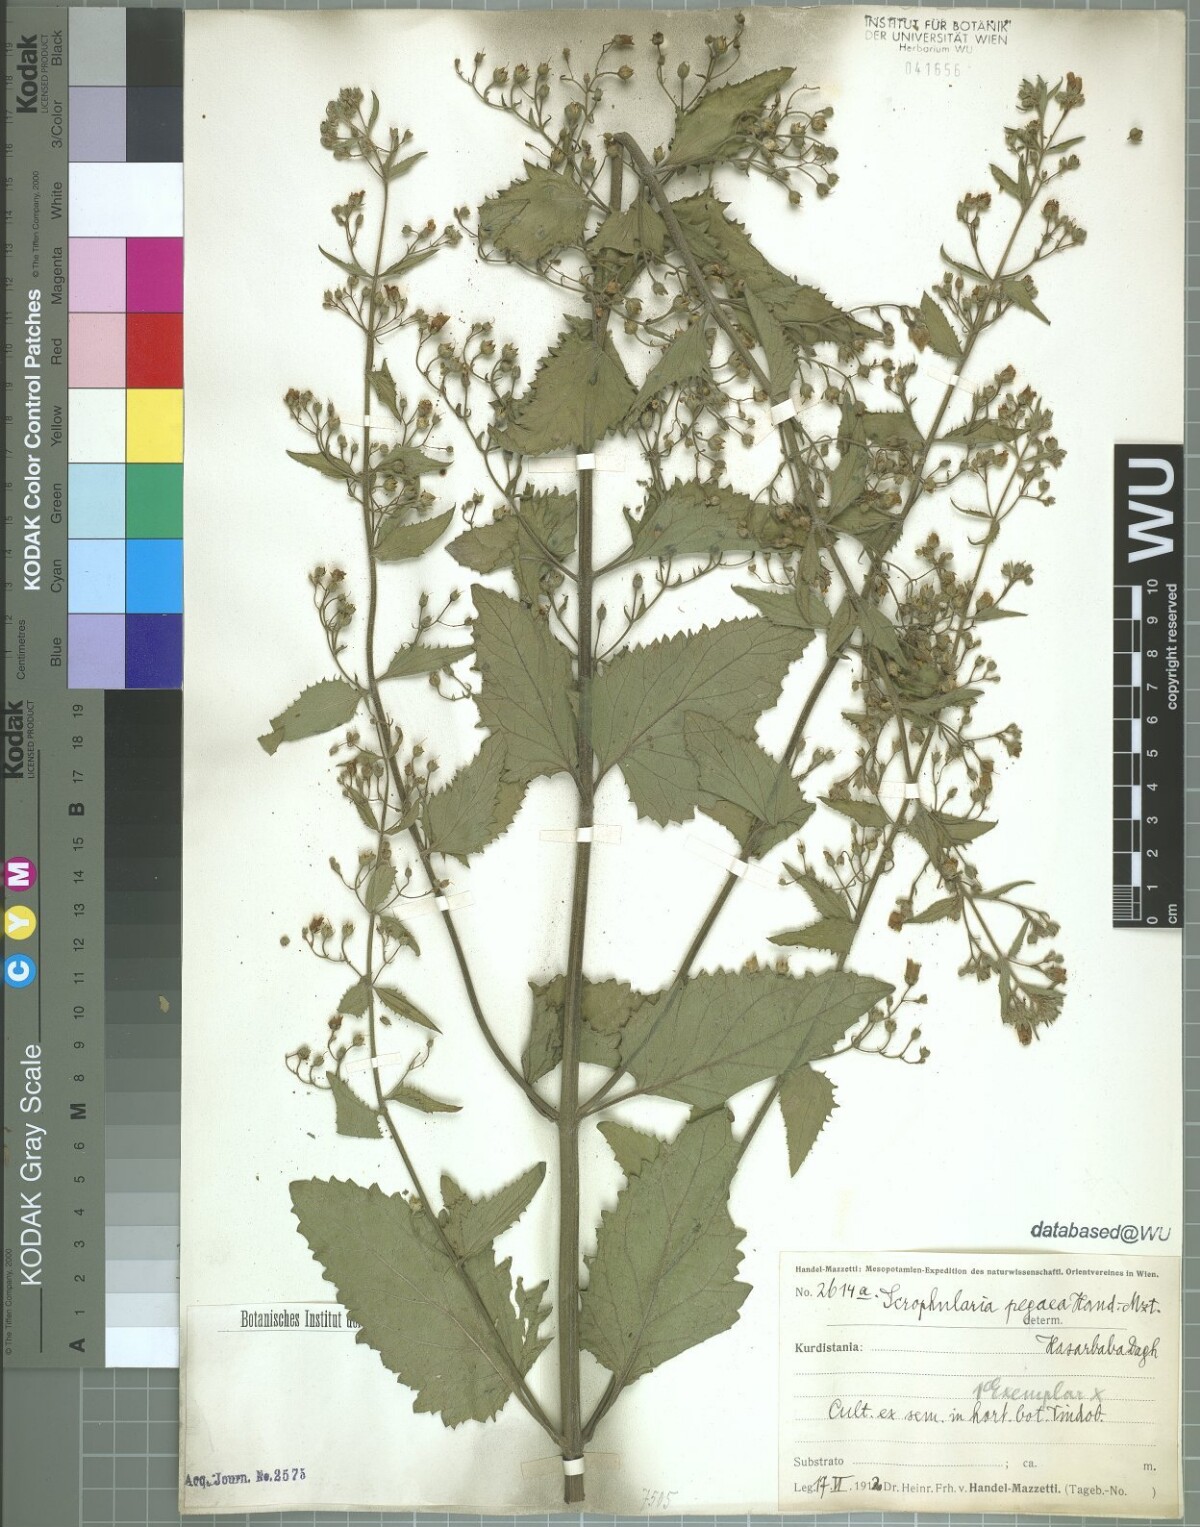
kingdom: Plantae
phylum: Tracheophyta
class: Magnoliopsida
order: Lamiales
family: Scrophulariaceae
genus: Scrophularia
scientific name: Scrophularia pegaea
